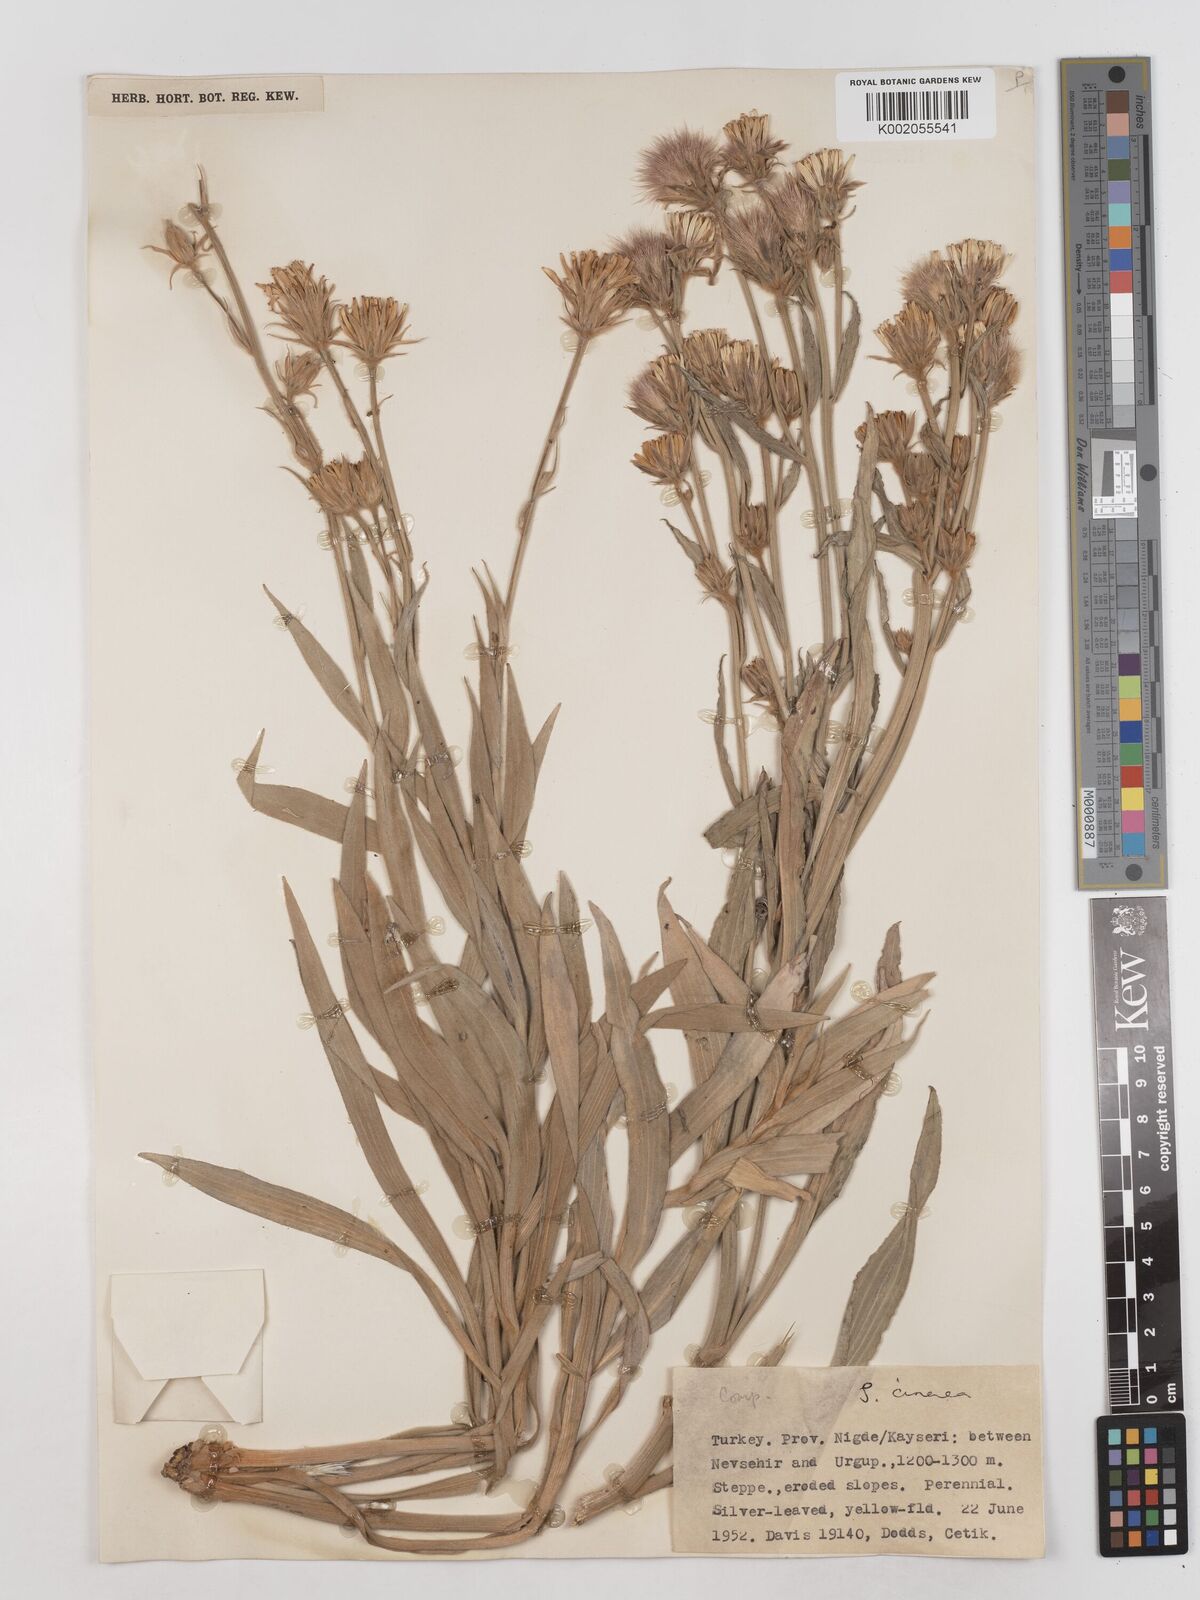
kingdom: Plantae
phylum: Tracheophyta
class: Magnoliopsida
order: Asterales
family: Asteraceae
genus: Cigdemia
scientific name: Cigdemia cinerea
